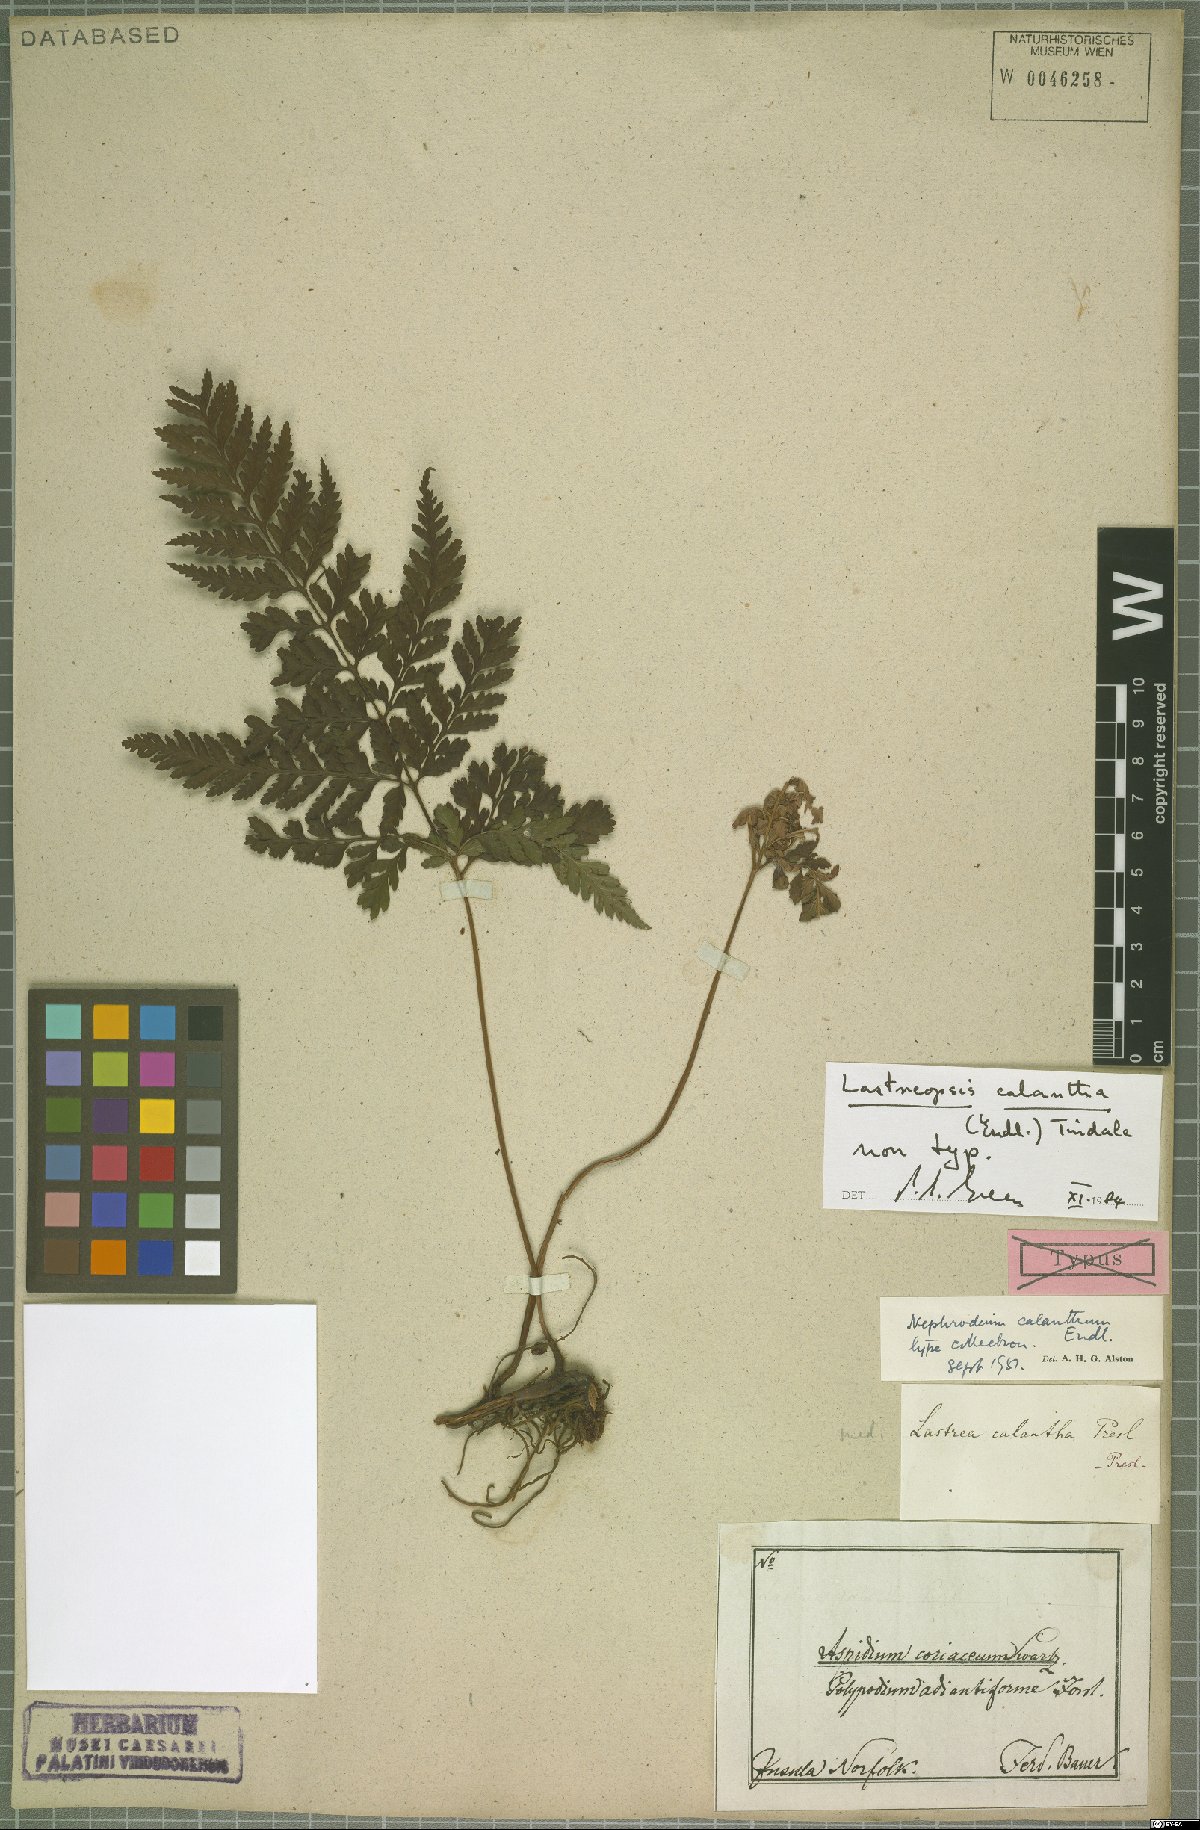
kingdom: Plantae
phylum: Tracheophyta
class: Polypodiopsida
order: Polypodiales
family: Dryopteridaceae
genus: Parapolystichum
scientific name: Parapolystichum calanthum
